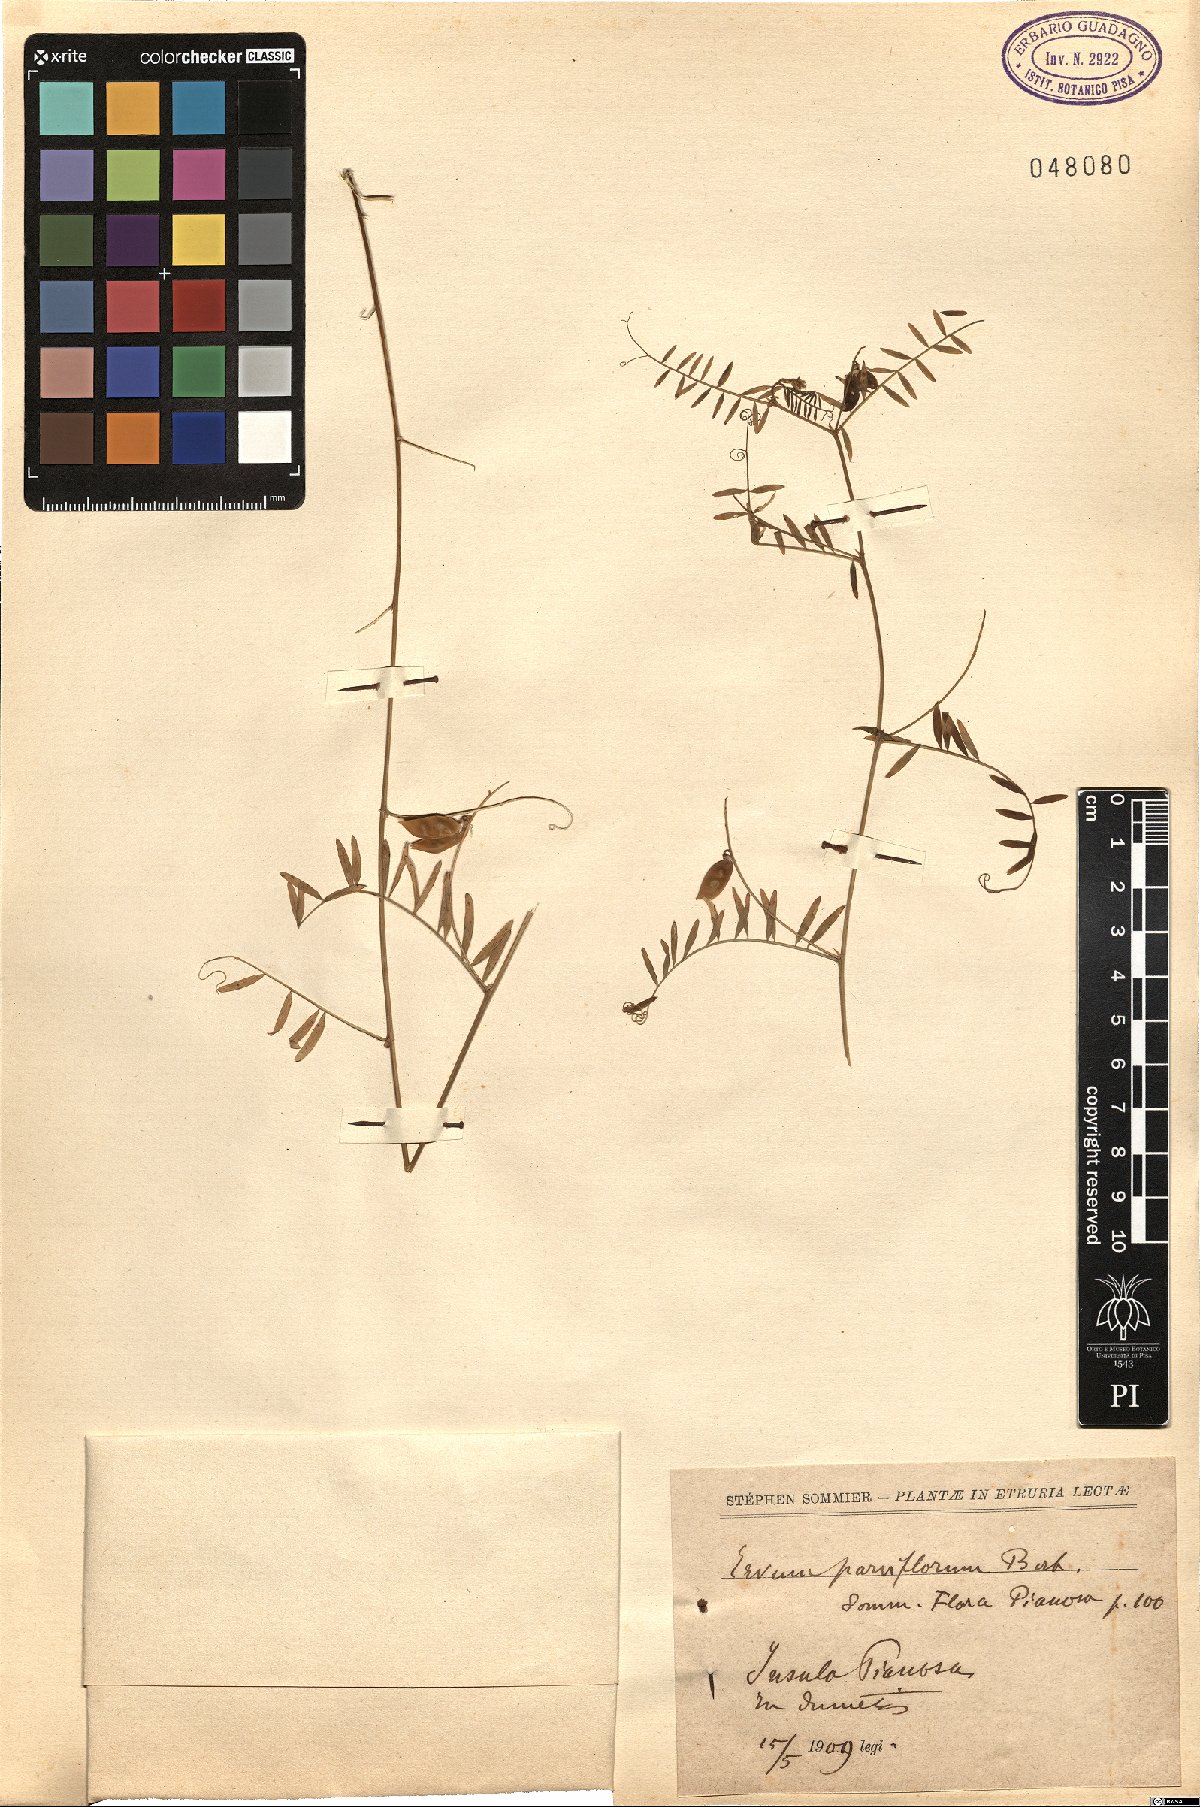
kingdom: Plantae
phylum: Tracheophyta
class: Magnoliopsida
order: Fabales
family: Fabaceae
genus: Vicia
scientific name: Vicia disperma
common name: European vetch
